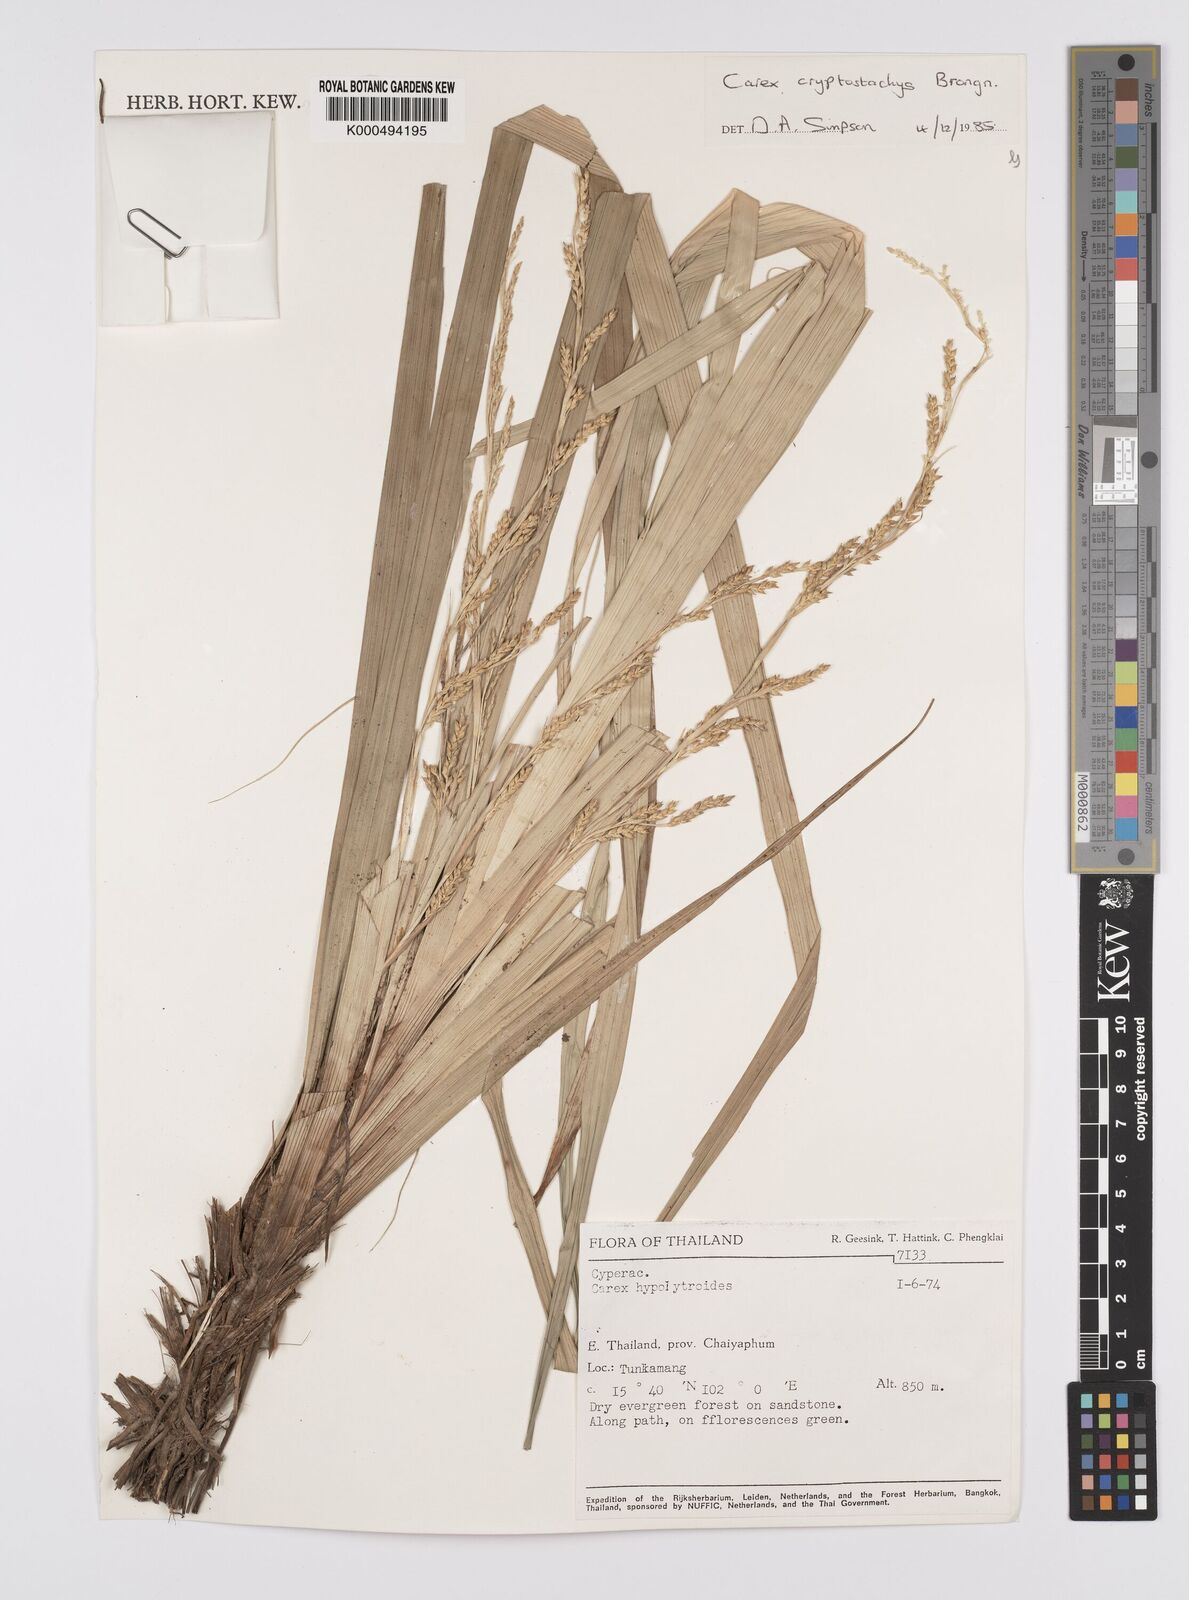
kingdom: Plantae
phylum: Tracheophyta
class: Liliopsida
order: Poales
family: Cyperaceae
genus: Carex
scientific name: Carex cryptostachys
